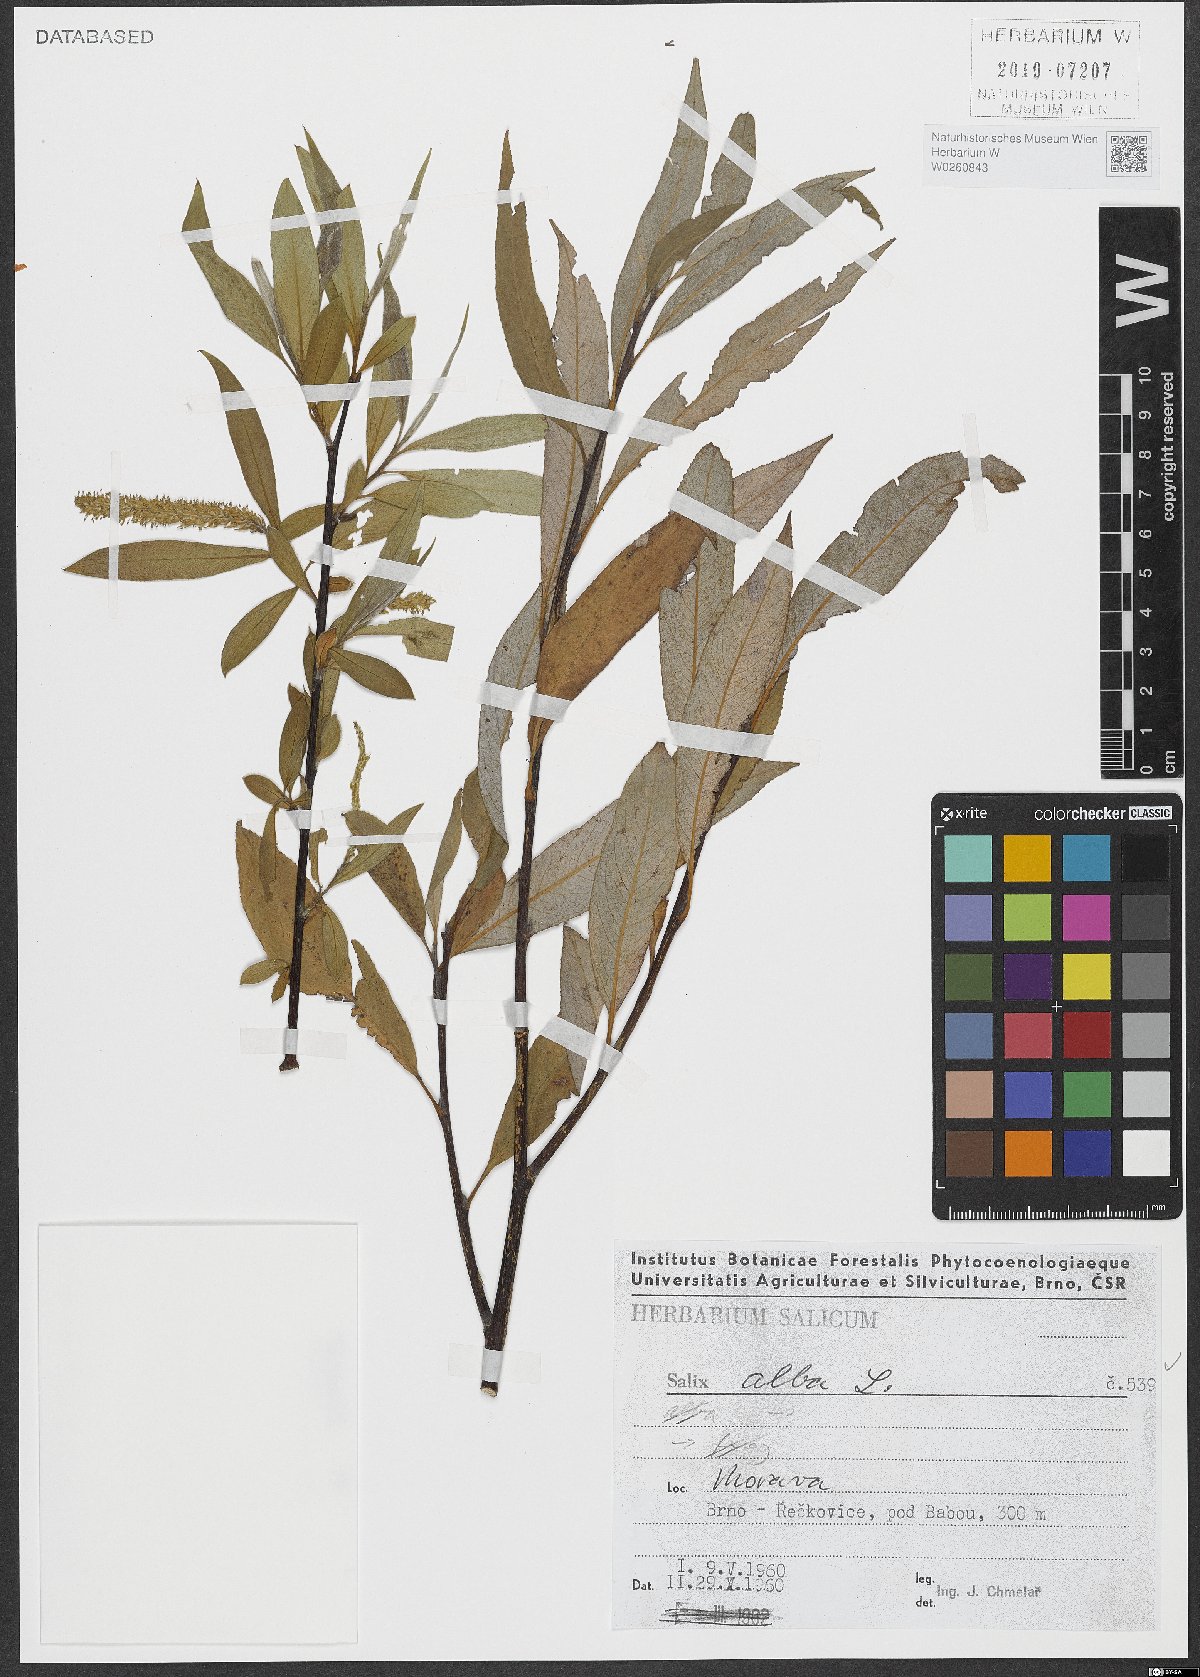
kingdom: Plantae
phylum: Tracheophyta
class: Magnoliopsida
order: Malpighiales
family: Salicaceae
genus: Salix
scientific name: Salix alba
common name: White willow
